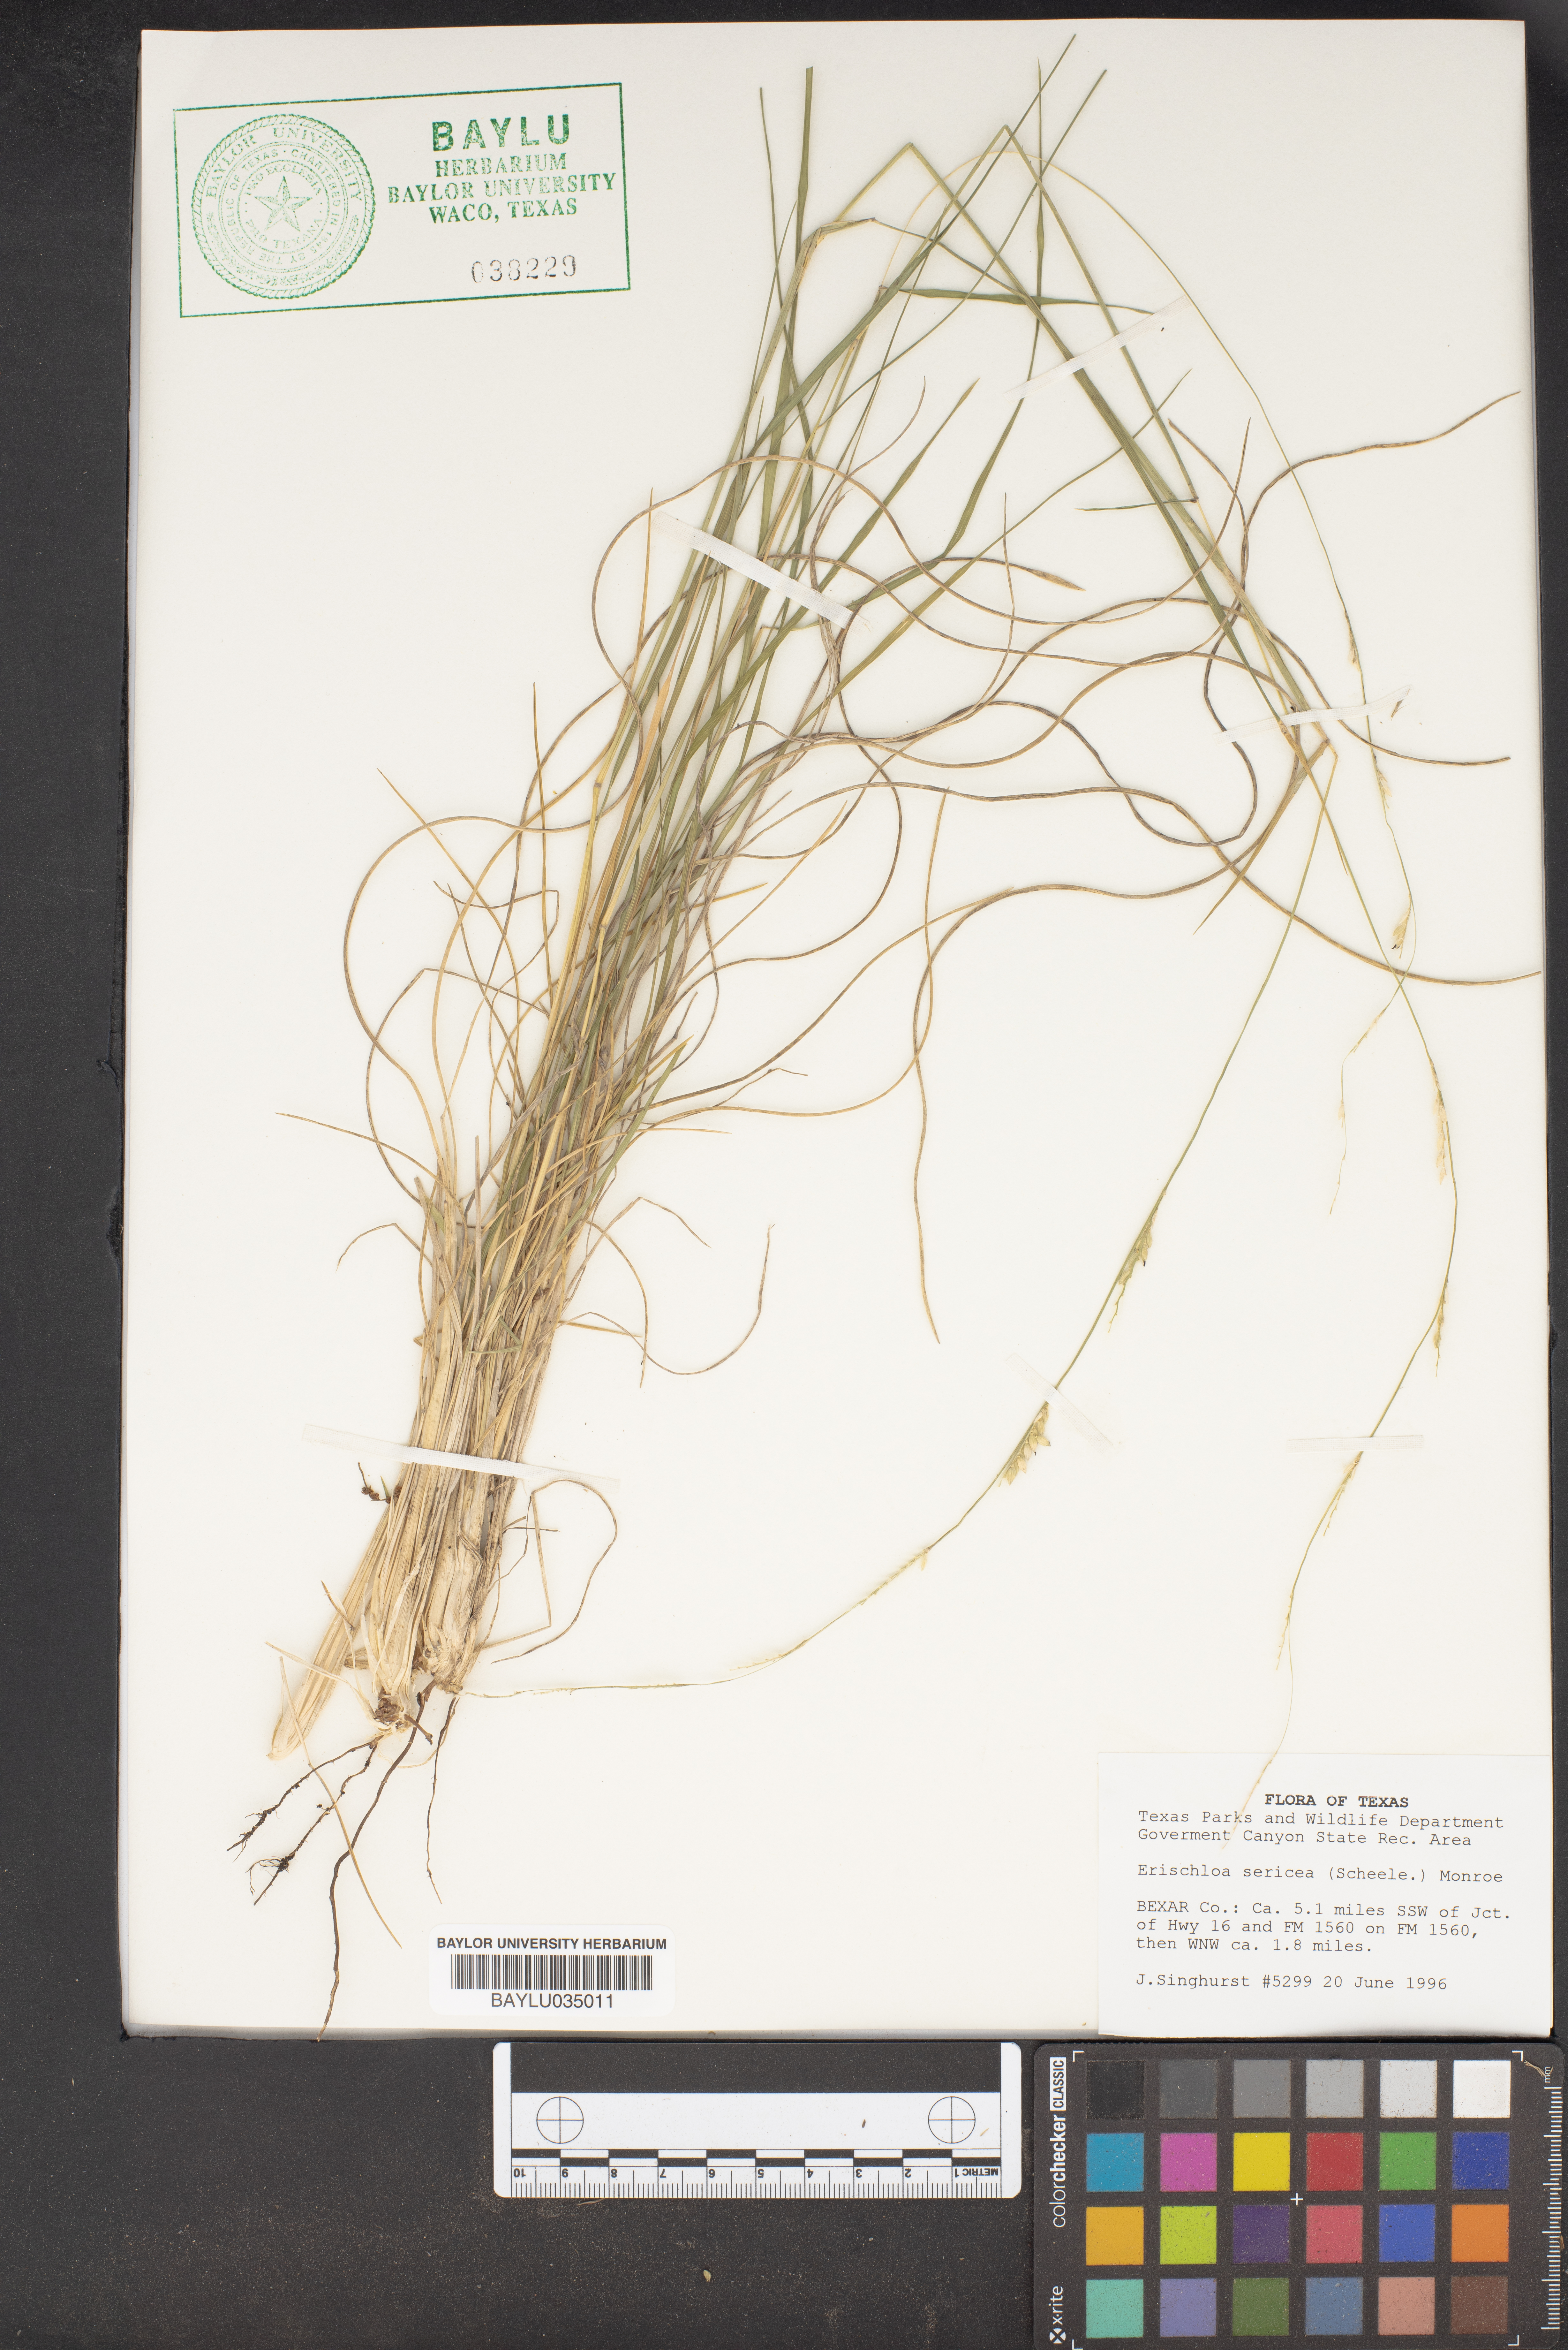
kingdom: Plantae
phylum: Tracheophyta
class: Liliopsida
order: Poales
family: Poaceae
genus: Eriochloa
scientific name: Eriochloa sericea
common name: Texas cup grass
